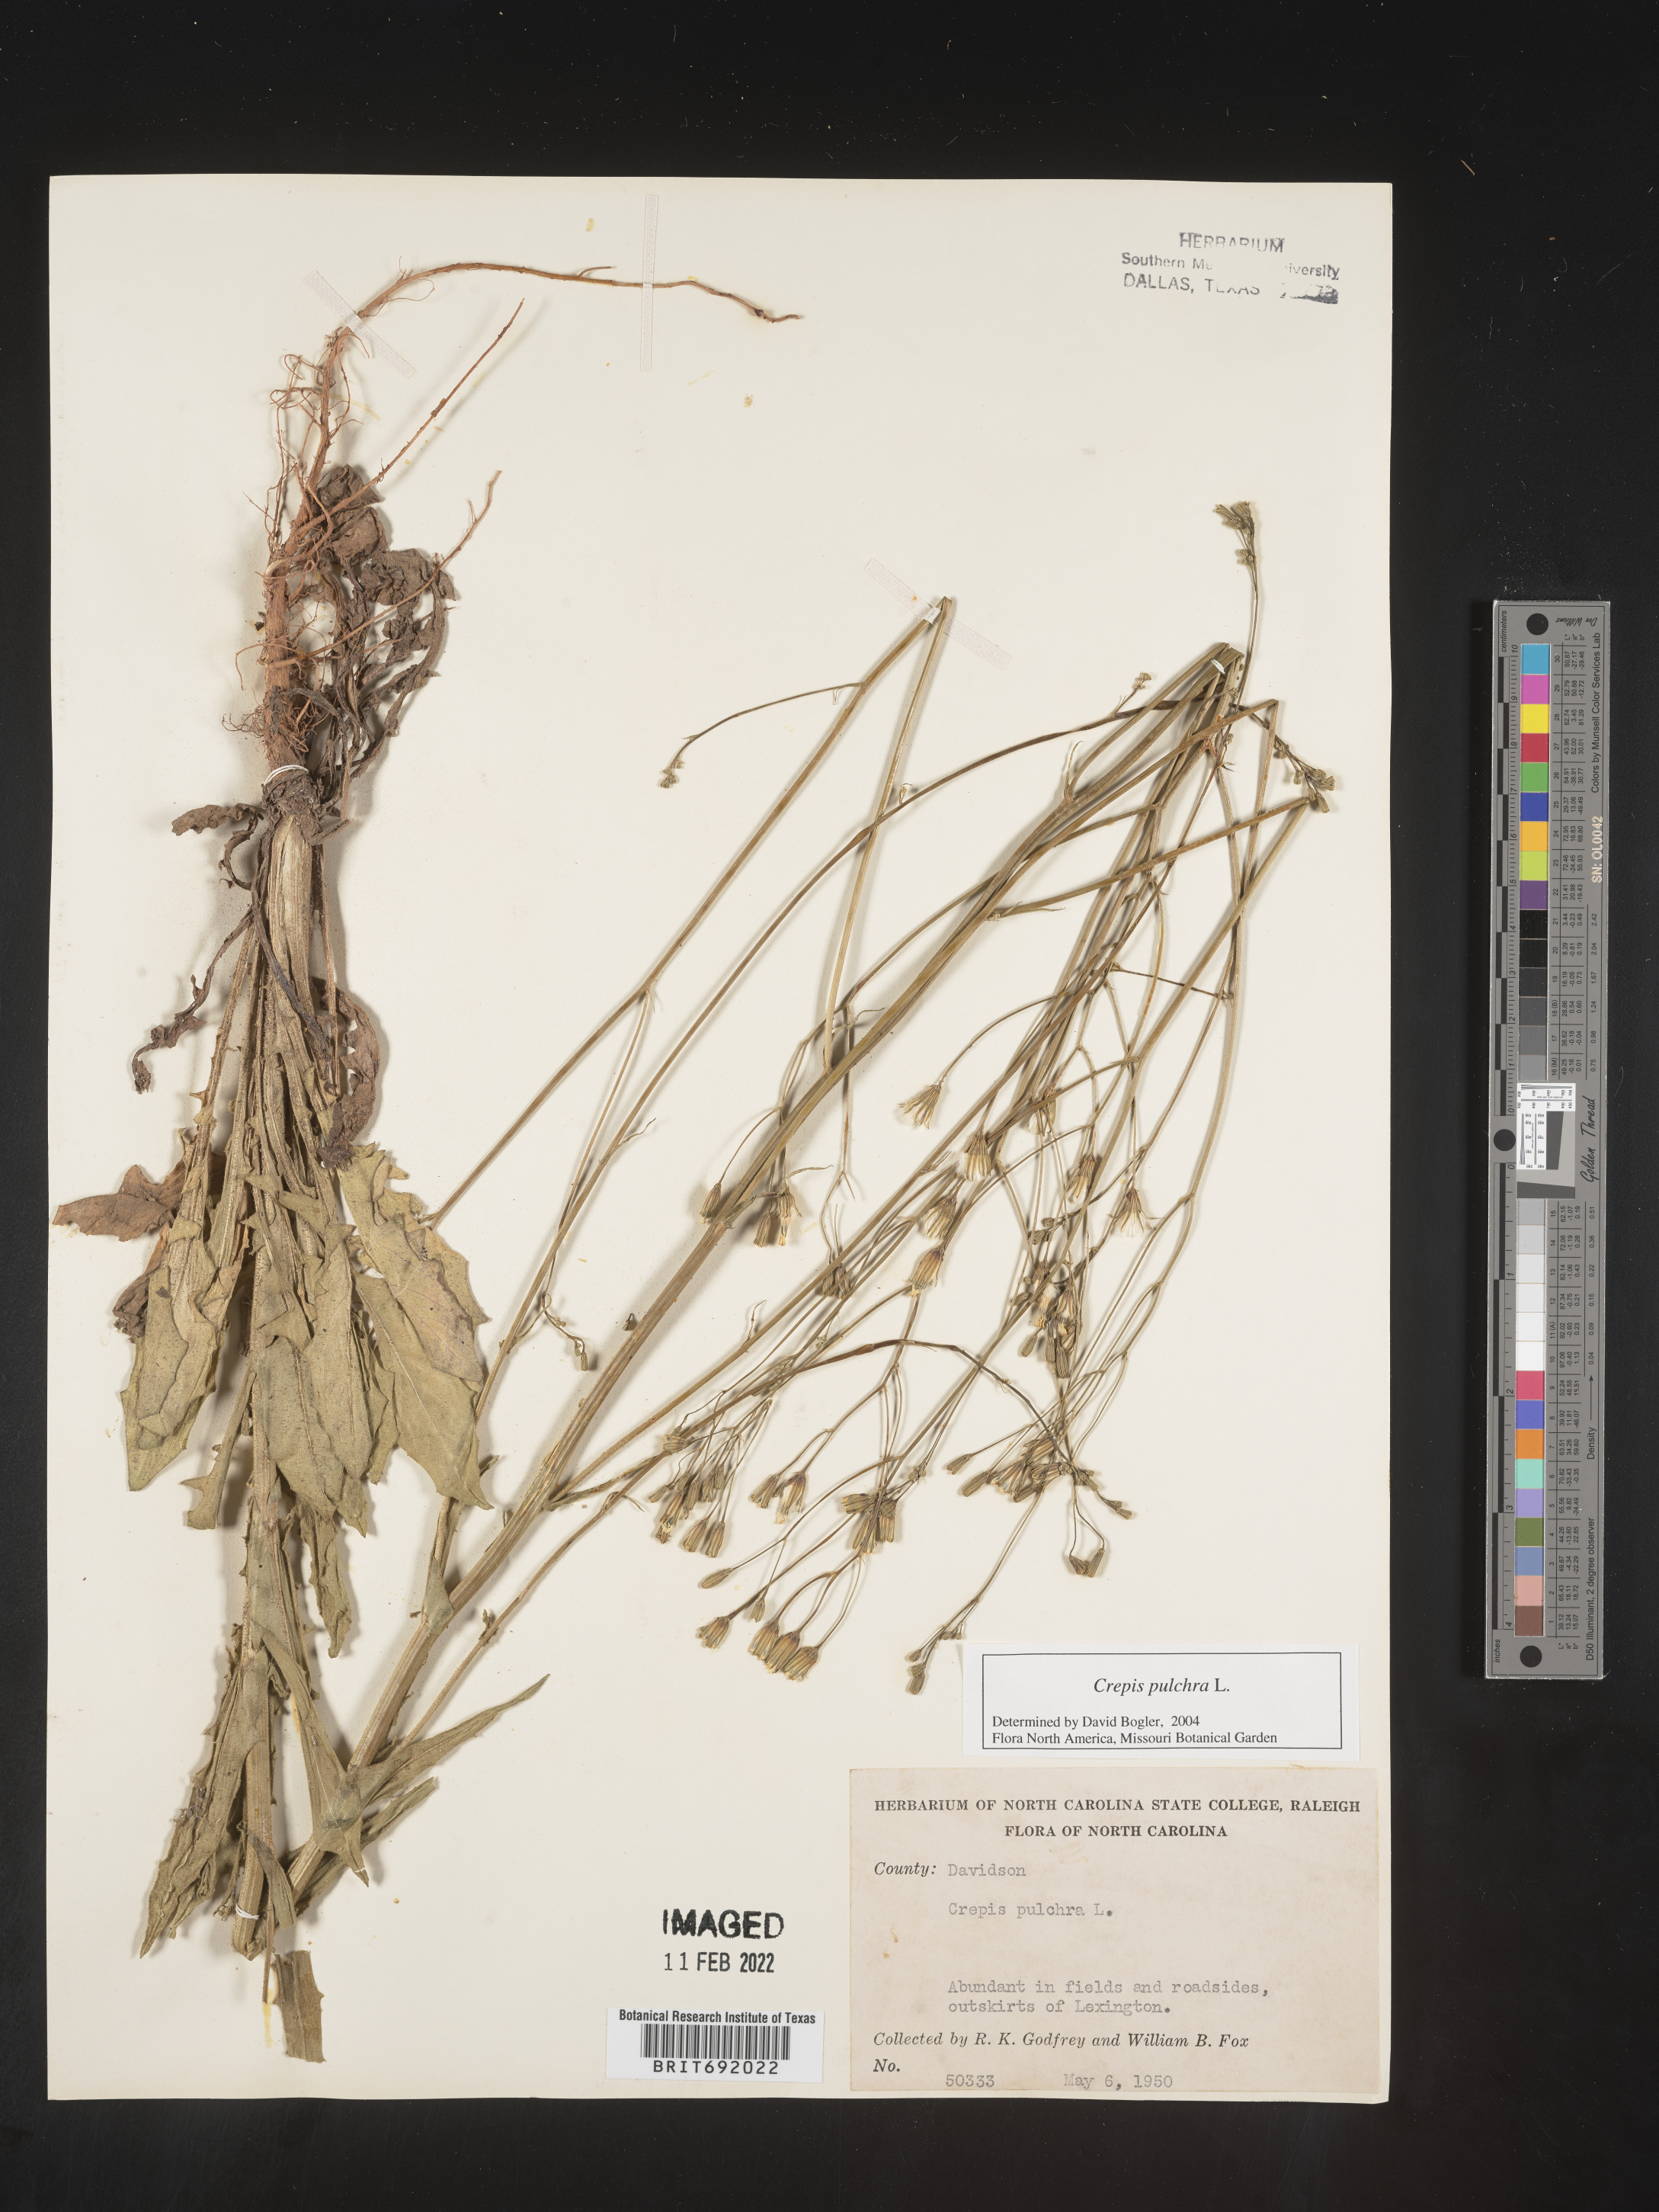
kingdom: Plantae
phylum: Tracheophyta
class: Magnoliopsida
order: Asterales
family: Asteraceae
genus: Crepis
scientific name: Crepis pulchra
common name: Hawk's-beard
